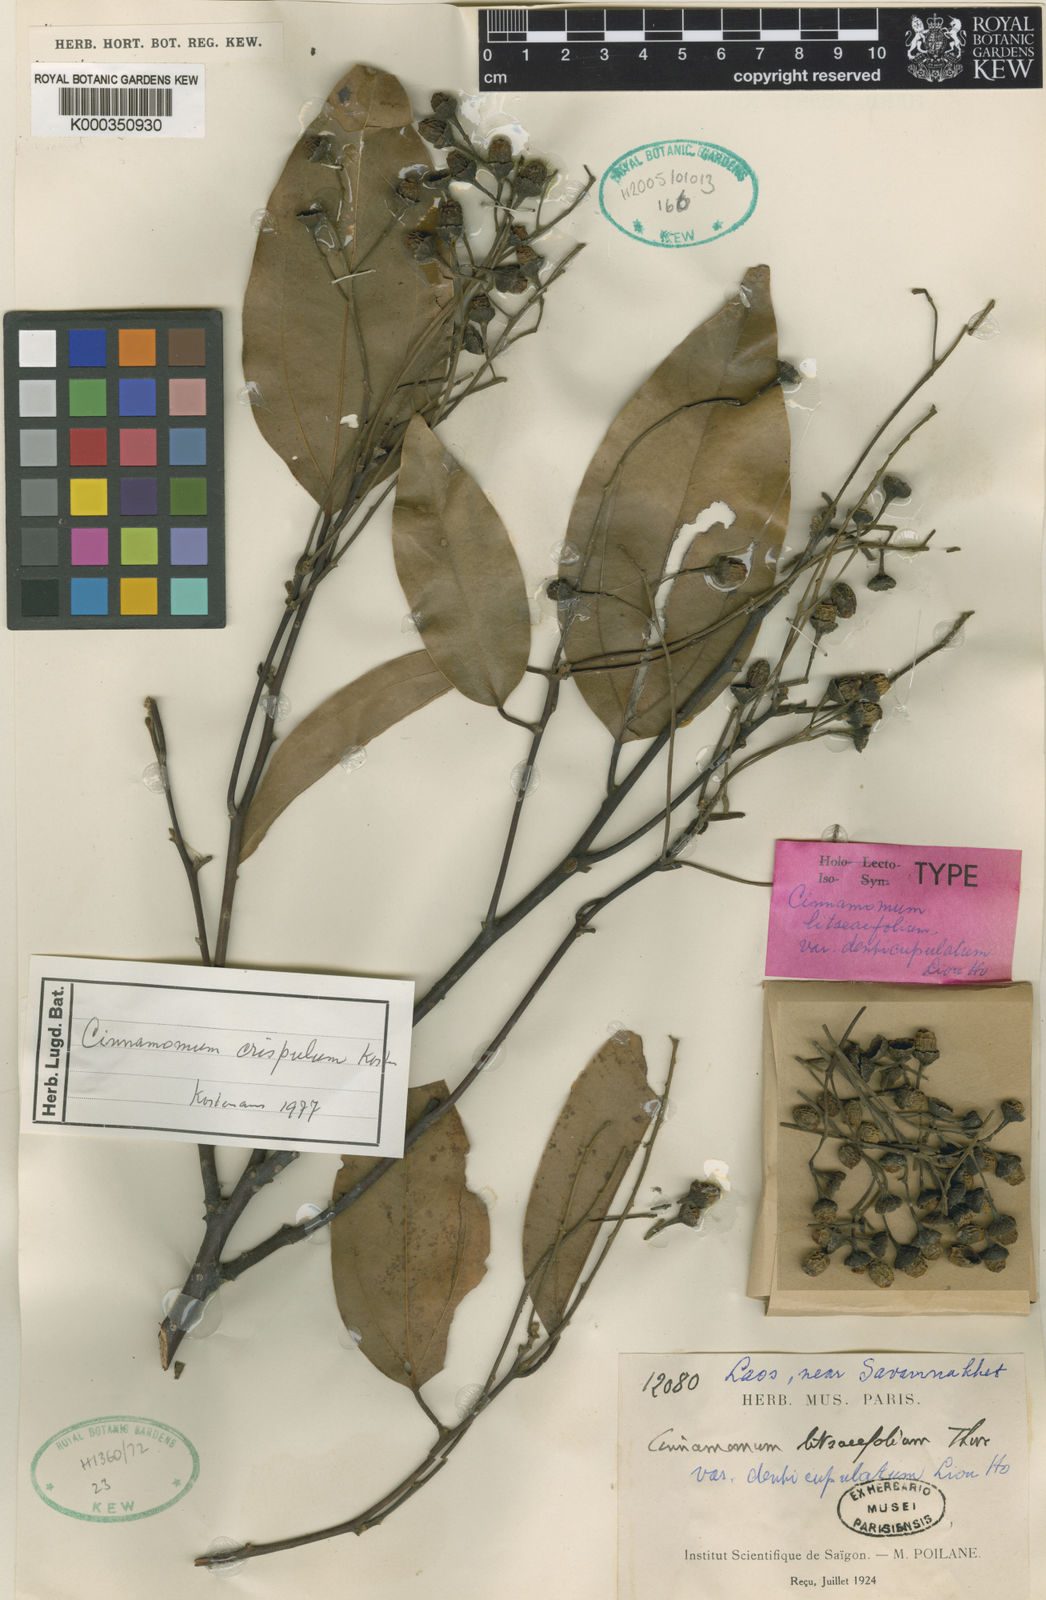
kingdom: Plantae
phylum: Tracheophyta
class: Magnoliopsida
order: Laurales
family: Lauraceae
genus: Cinnamomum
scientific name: Cinnamomum
